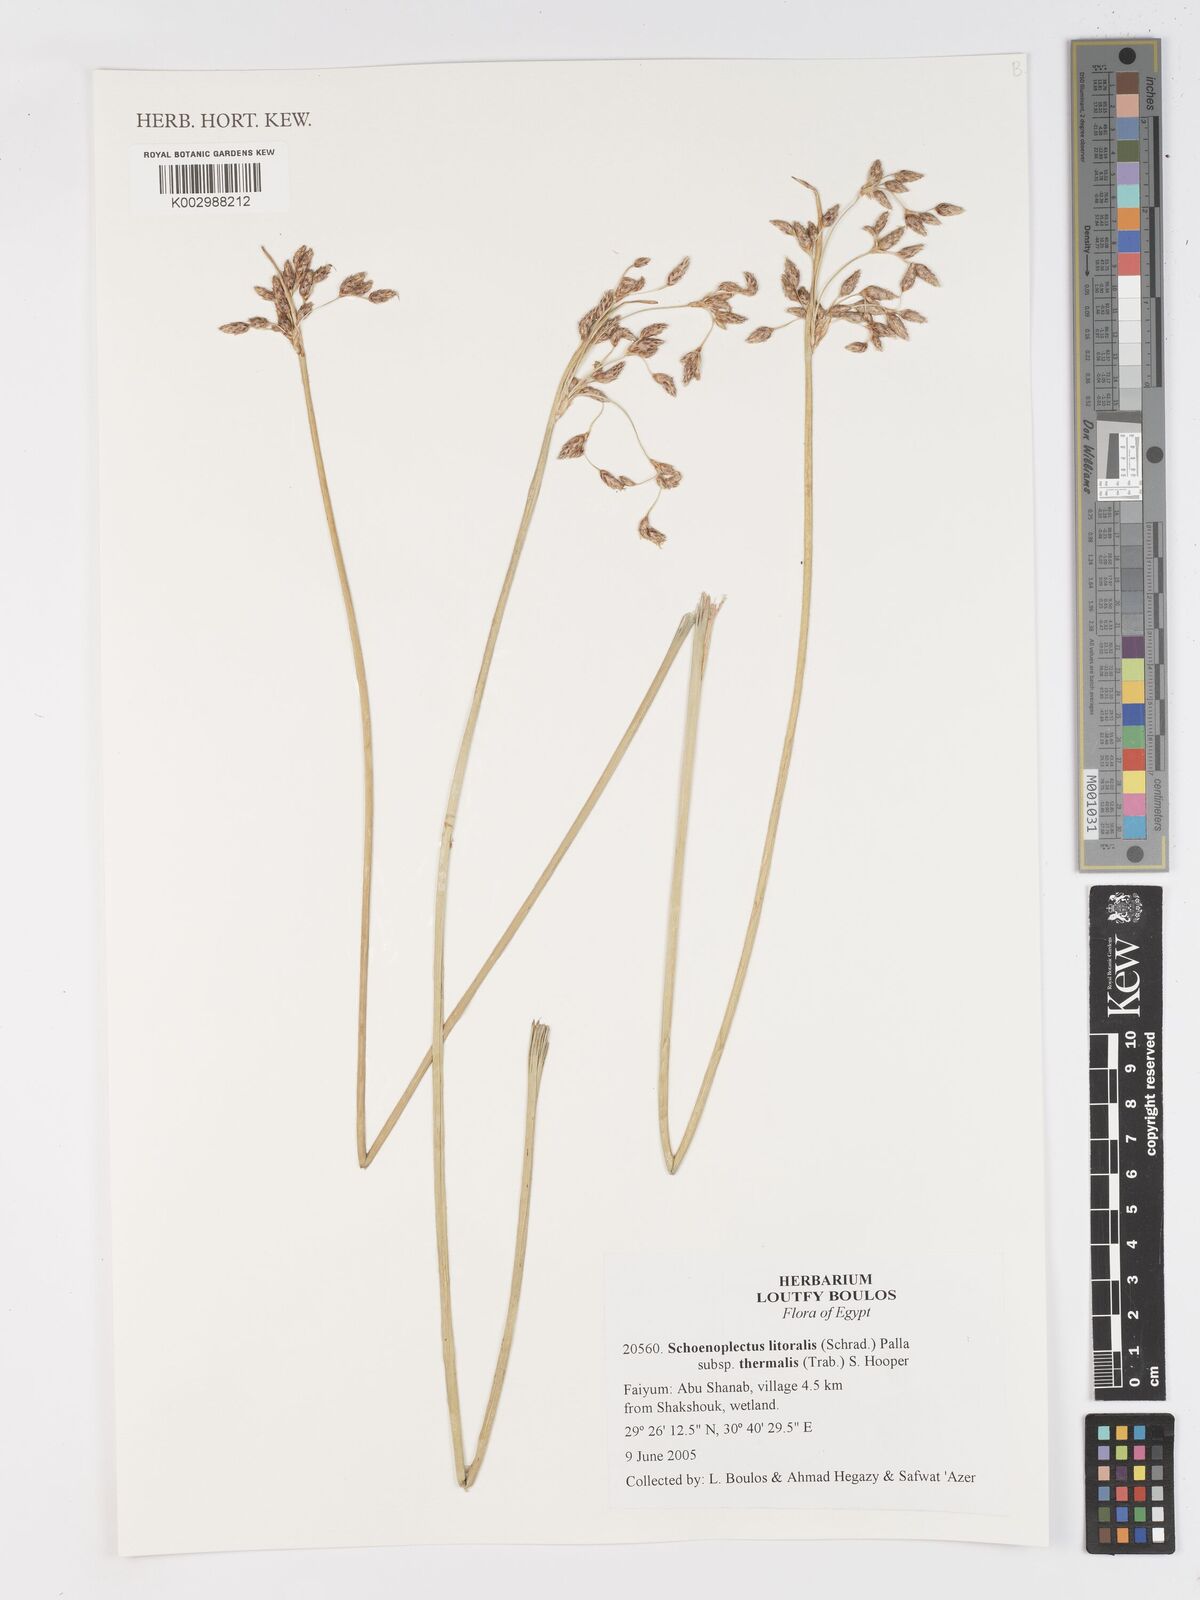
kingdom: Plantae
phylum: Tracheophyta
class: Liliopsida
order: Poales
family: Cyperaceae
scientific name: Cyperaceae
